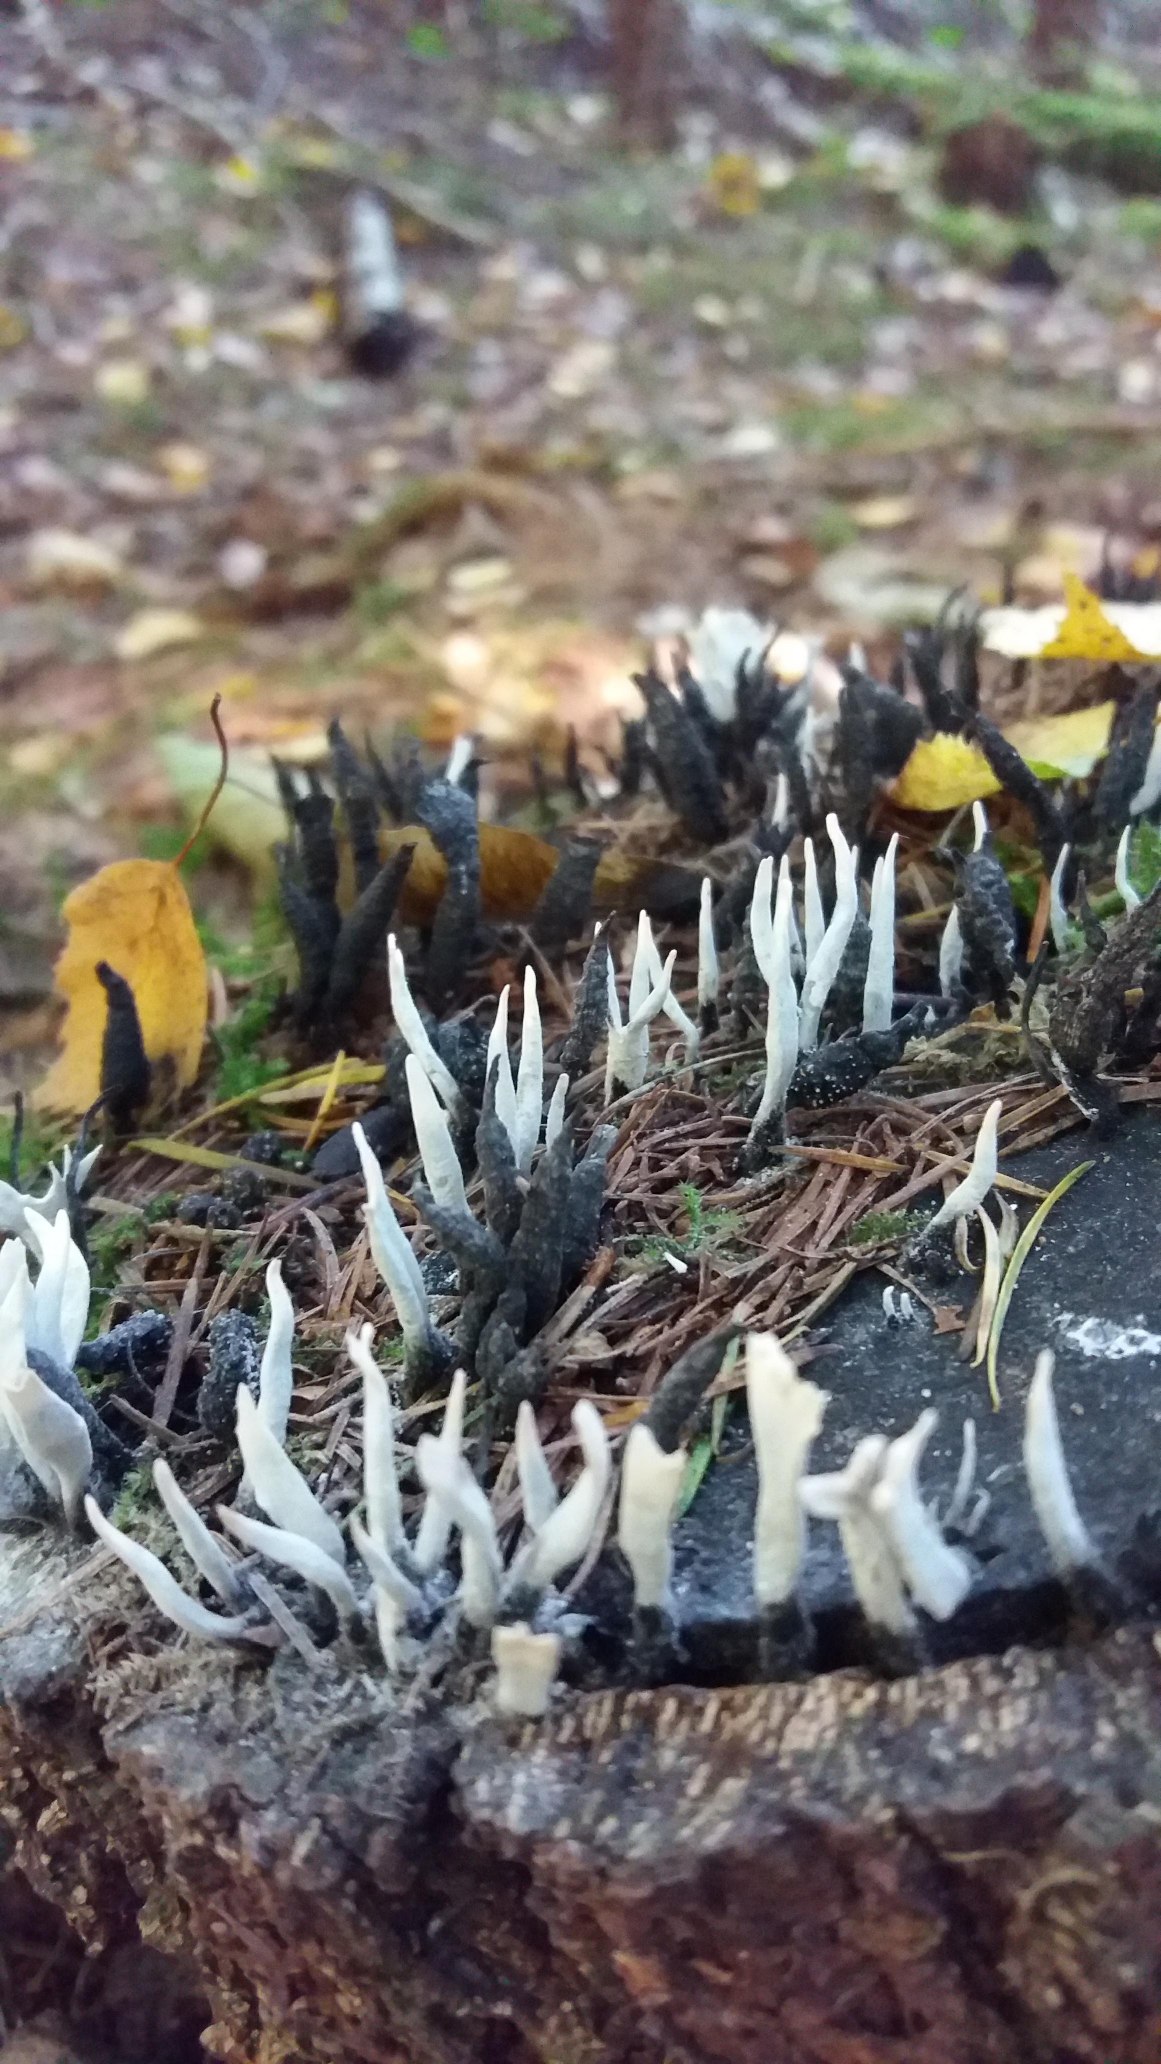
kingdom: Fungi
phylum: Ascomycota
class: Sordariomycetes
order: Xylariales
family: Xylariaceae
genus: Xylaria
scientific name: Xylaria hypoxylon
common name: Grenet stødsvamp
